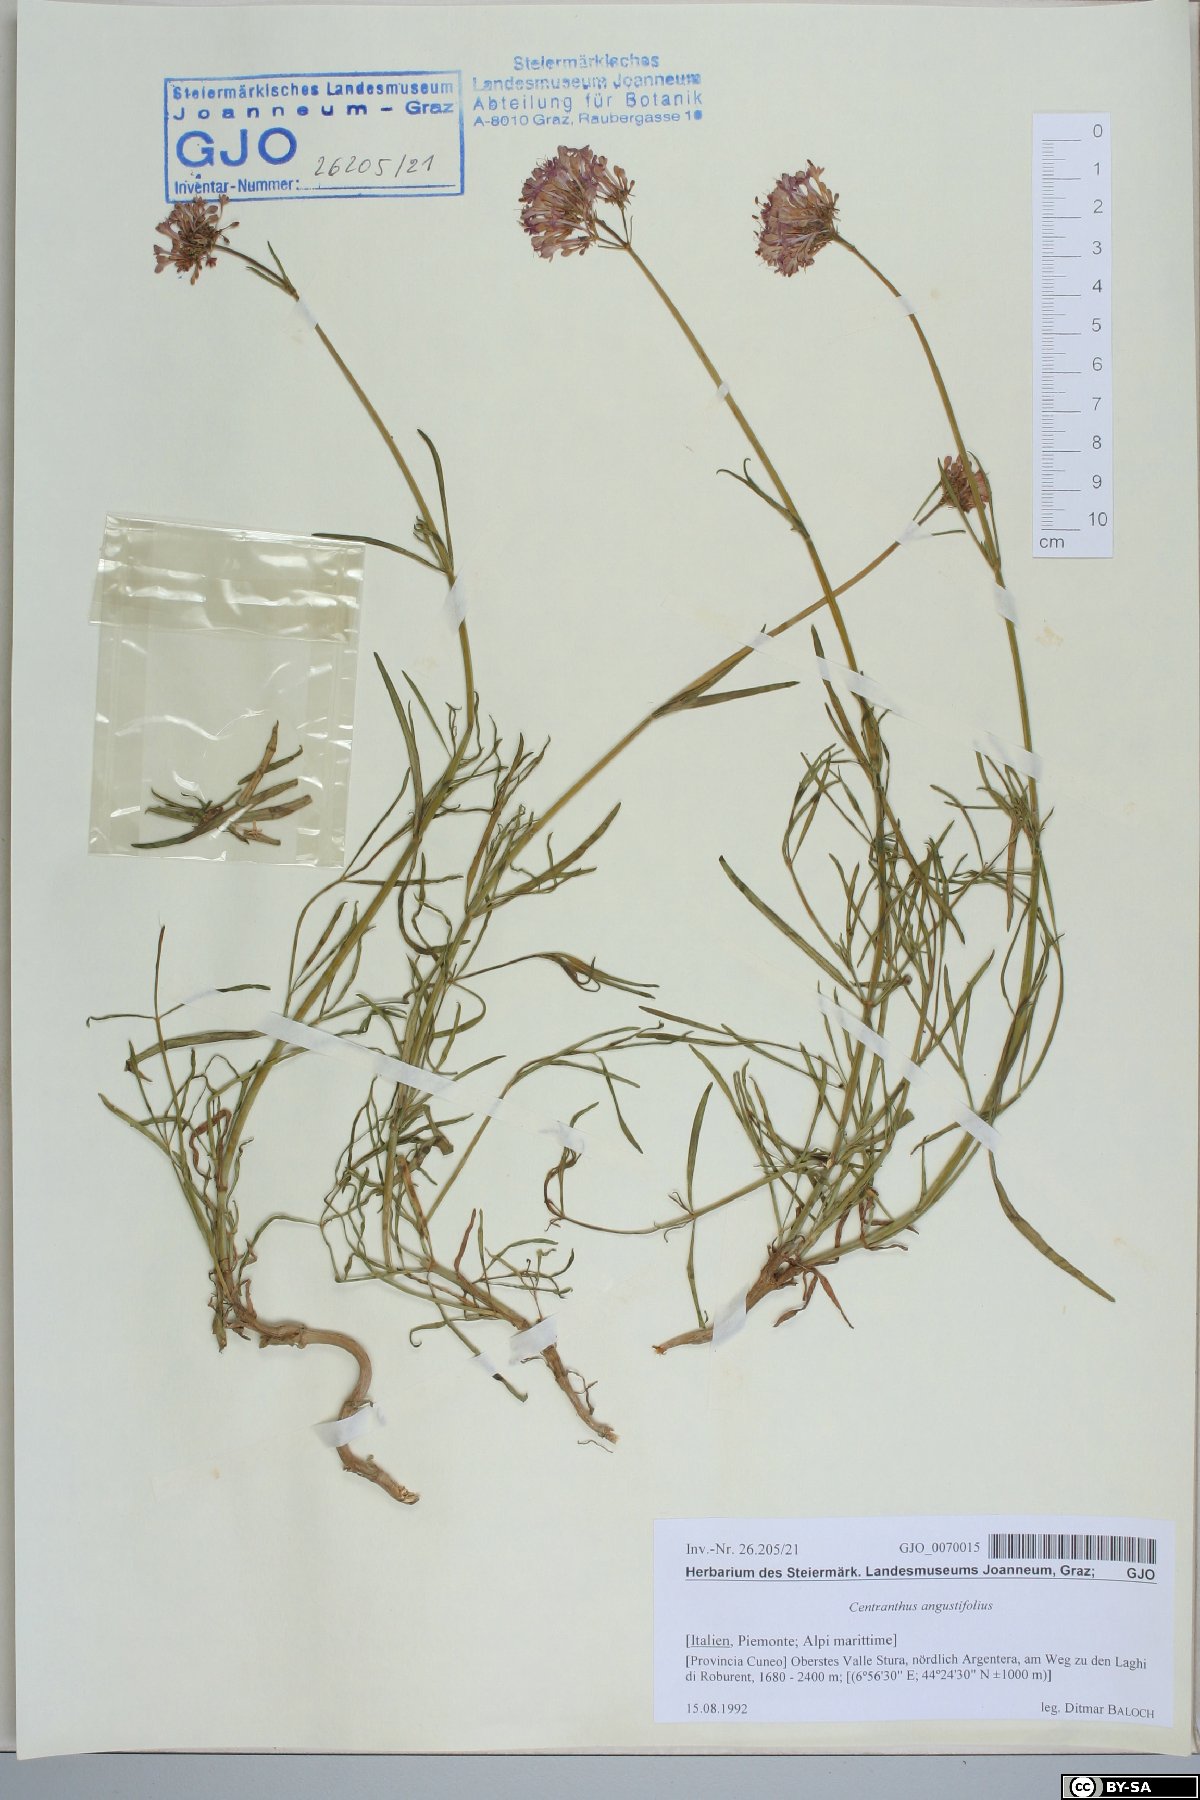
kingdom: Plantae
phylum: Tracheophyta
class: Magnoliopsida
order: Dipsacales
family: Caprifoliaceae
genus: Centranthus
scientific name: Centranthus angustifolius
